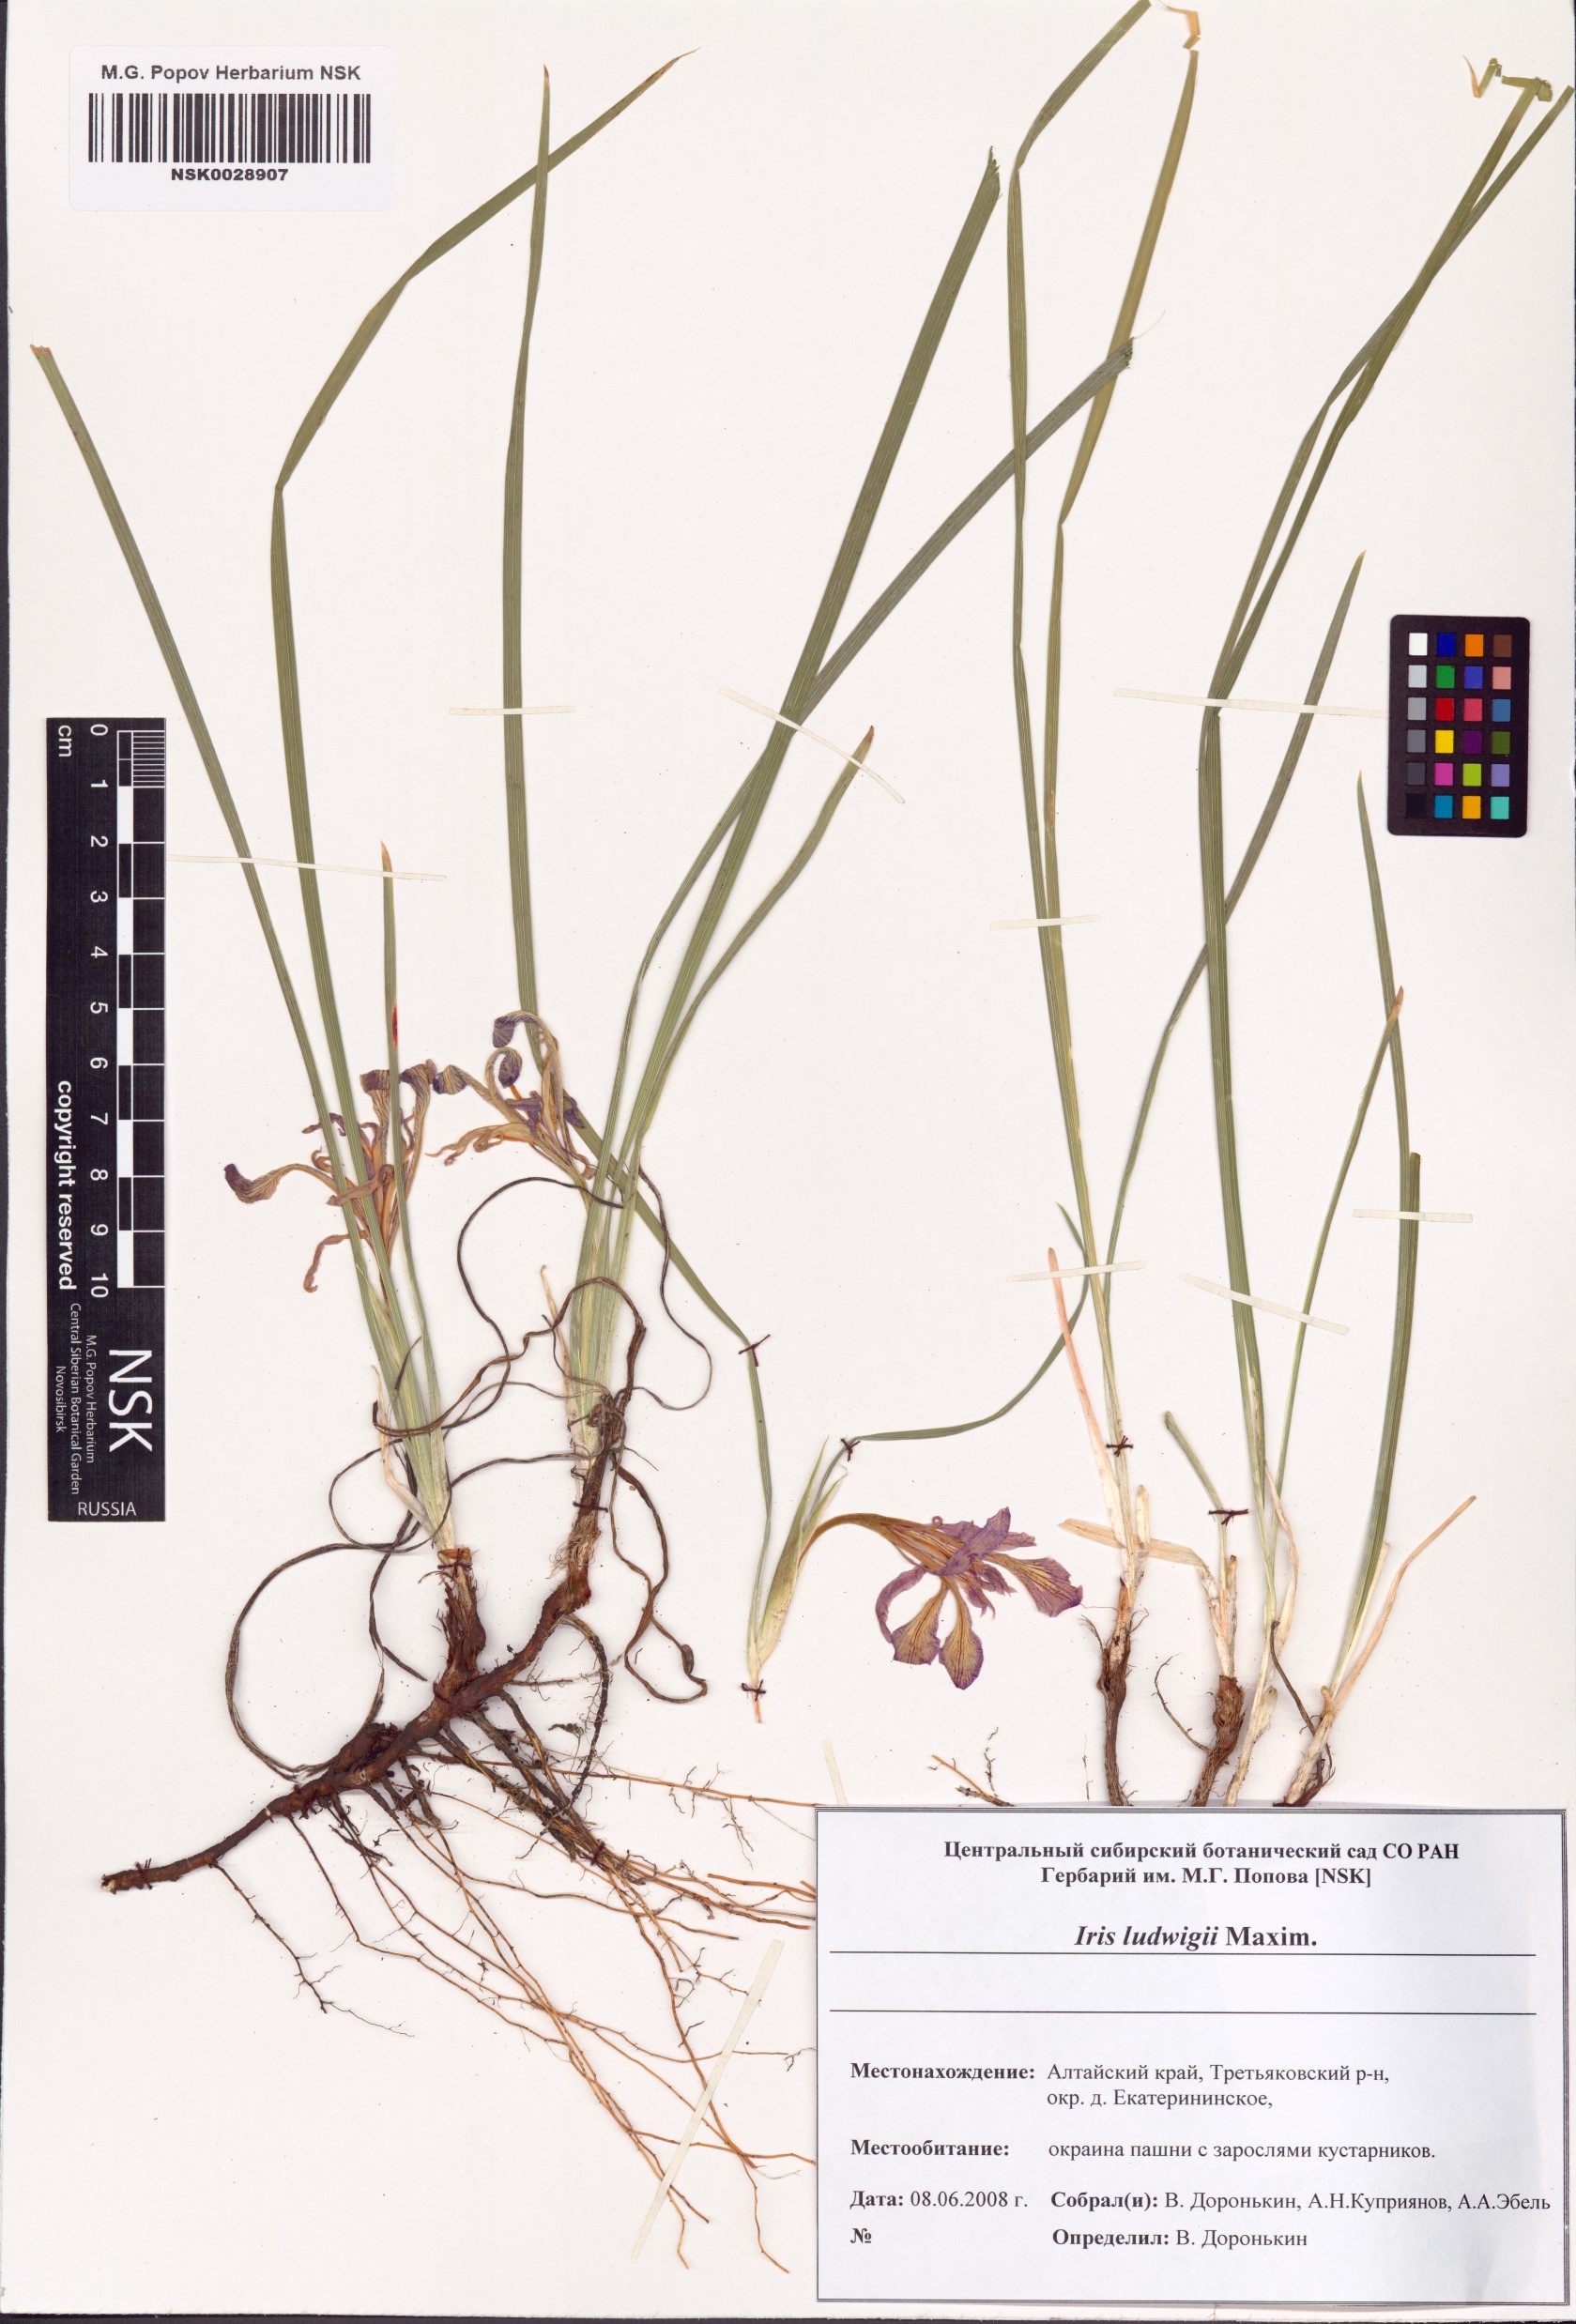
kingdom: Plantae
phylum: Tracheophyta
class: Liliopsida
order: Asparagales
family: Iridaceae
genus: Iris
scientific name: Iris ludwigii
